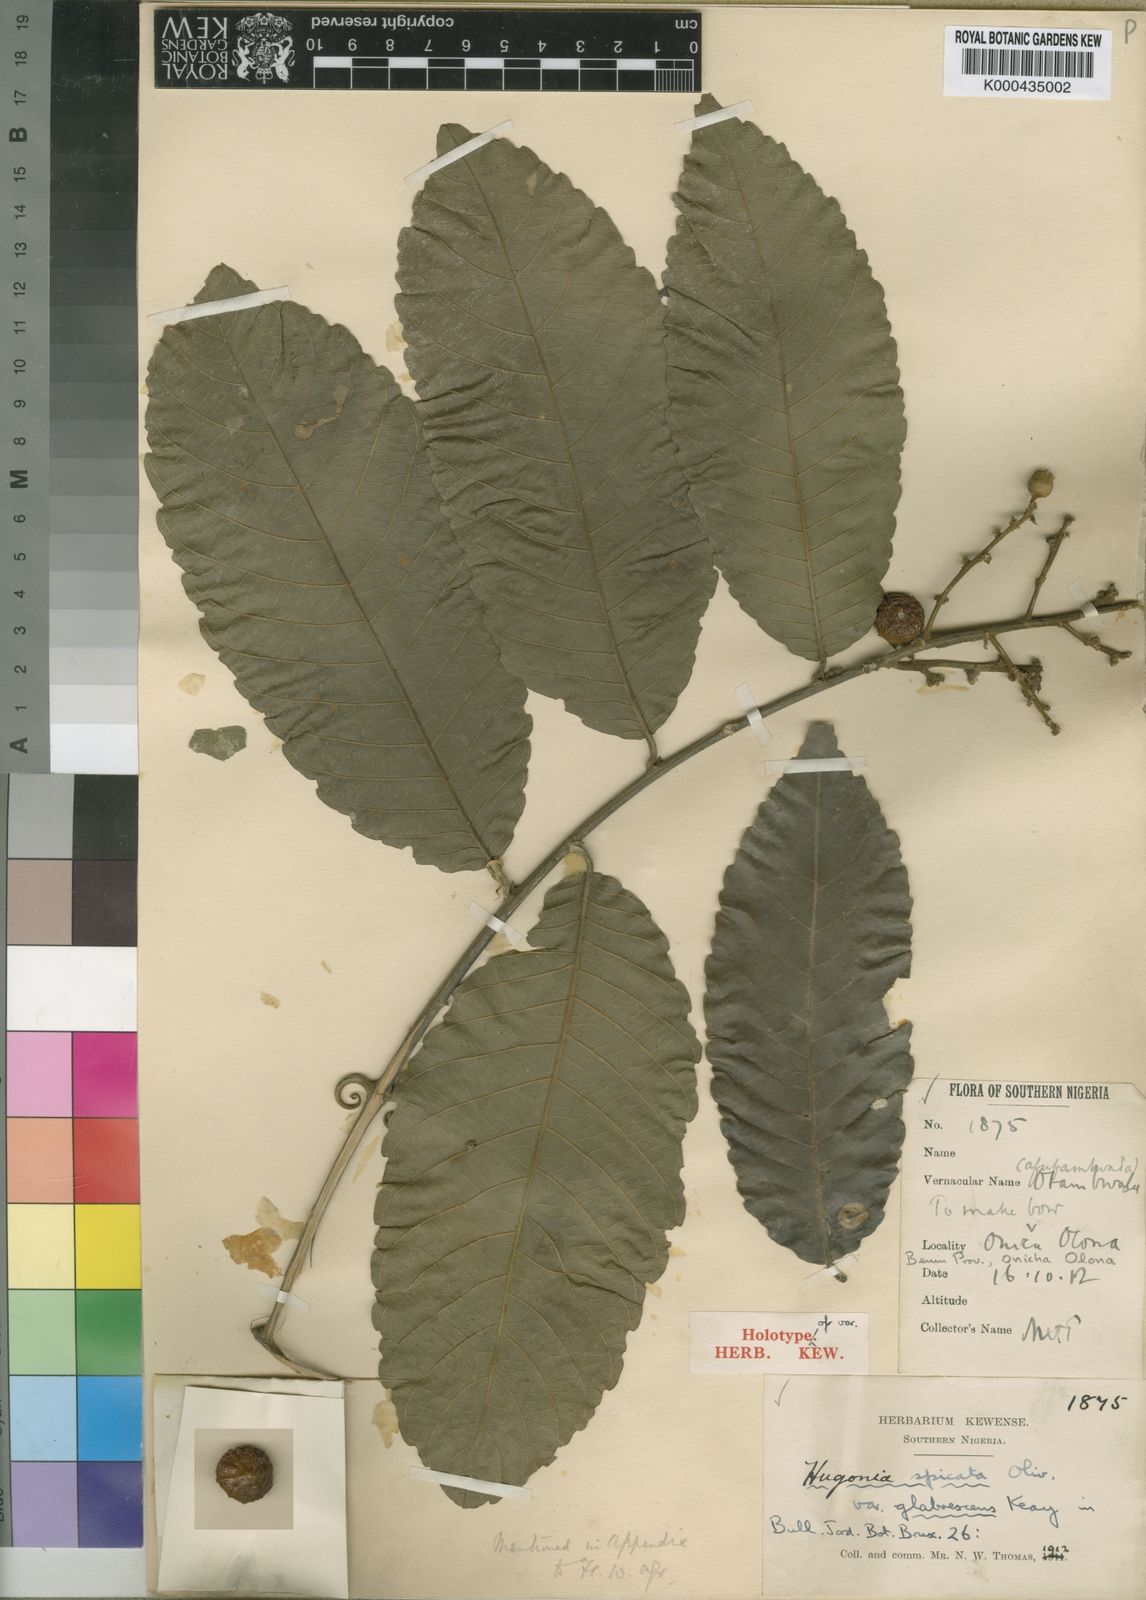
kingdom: Plantae
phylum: Tracheophyta
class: Magnoliopsida
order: Malpighiales
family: Linaceae
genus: Hugonia
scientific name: Hugonia spicata
